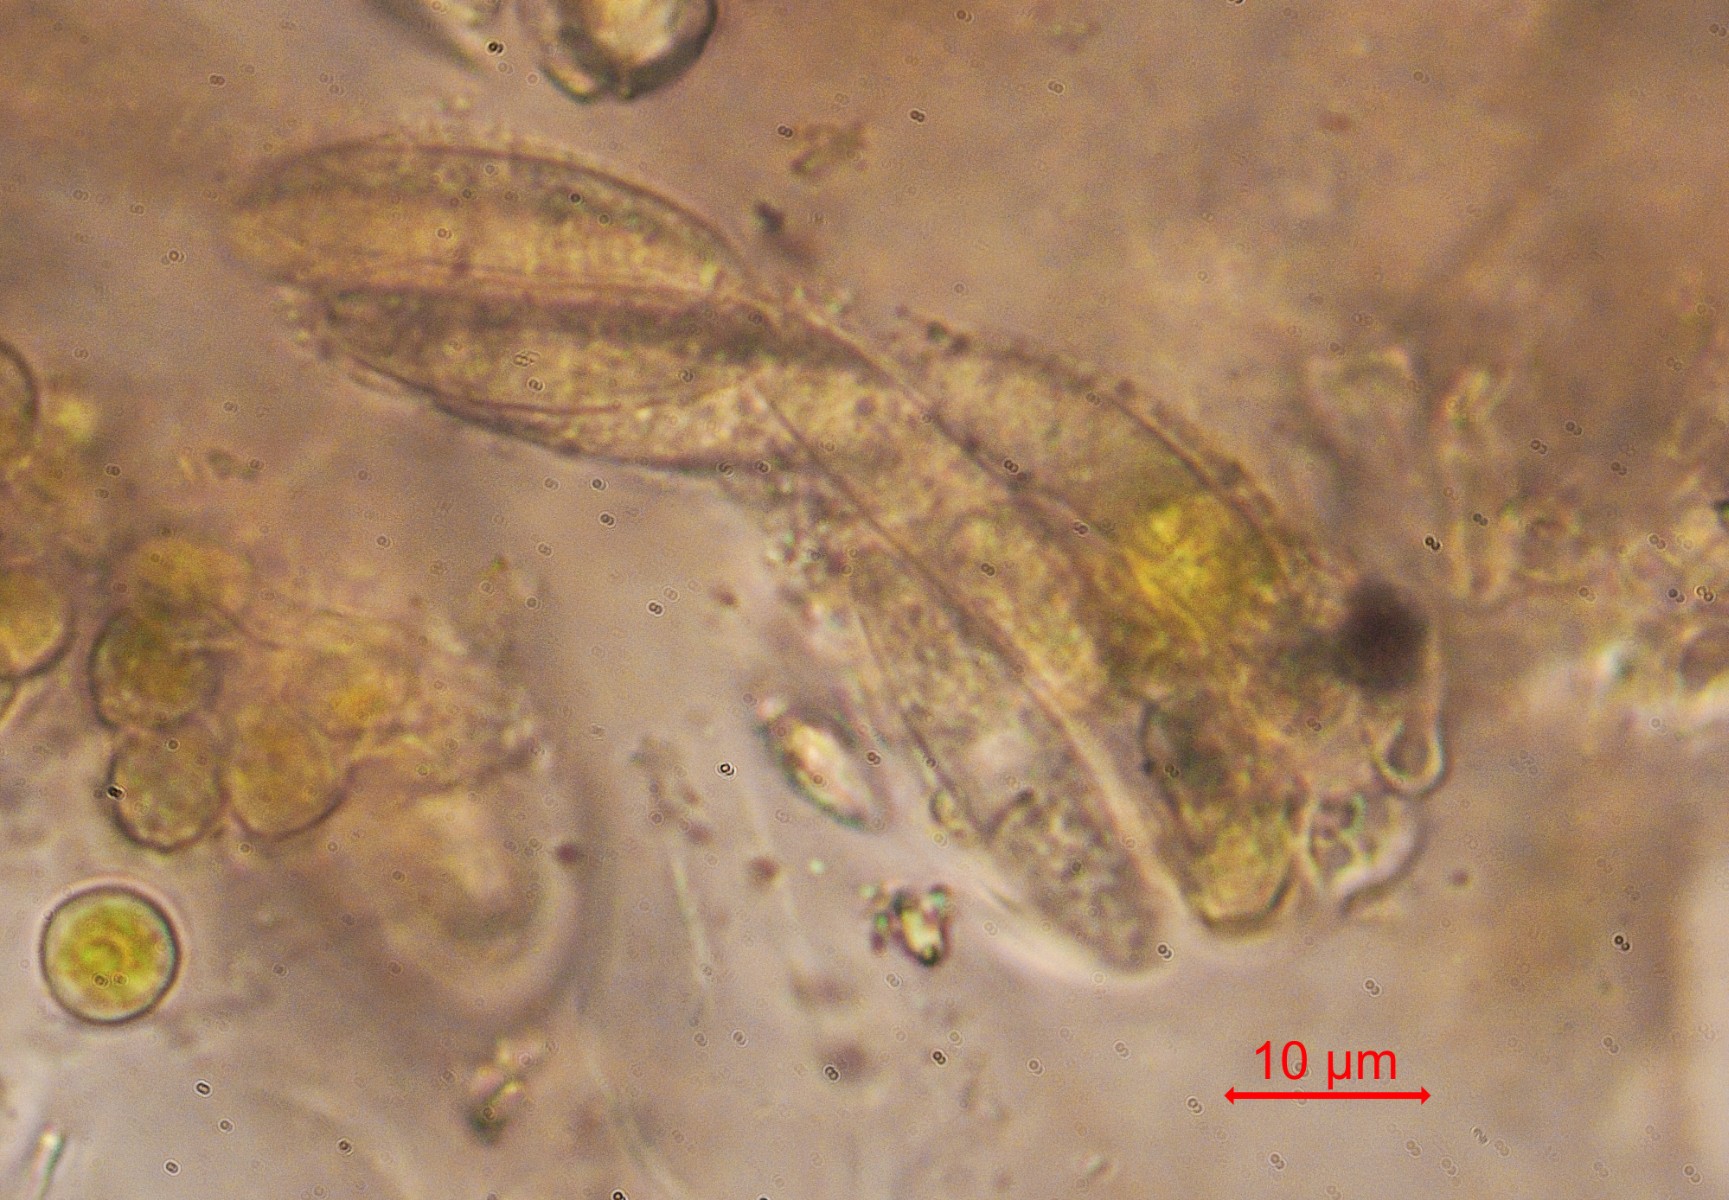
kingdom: Fungi
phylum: Ascomycota
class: Eurotiomycetes
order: Verrucariales
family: Verrucariaceae
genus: Telogalla
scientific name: Telogalla olivieri
